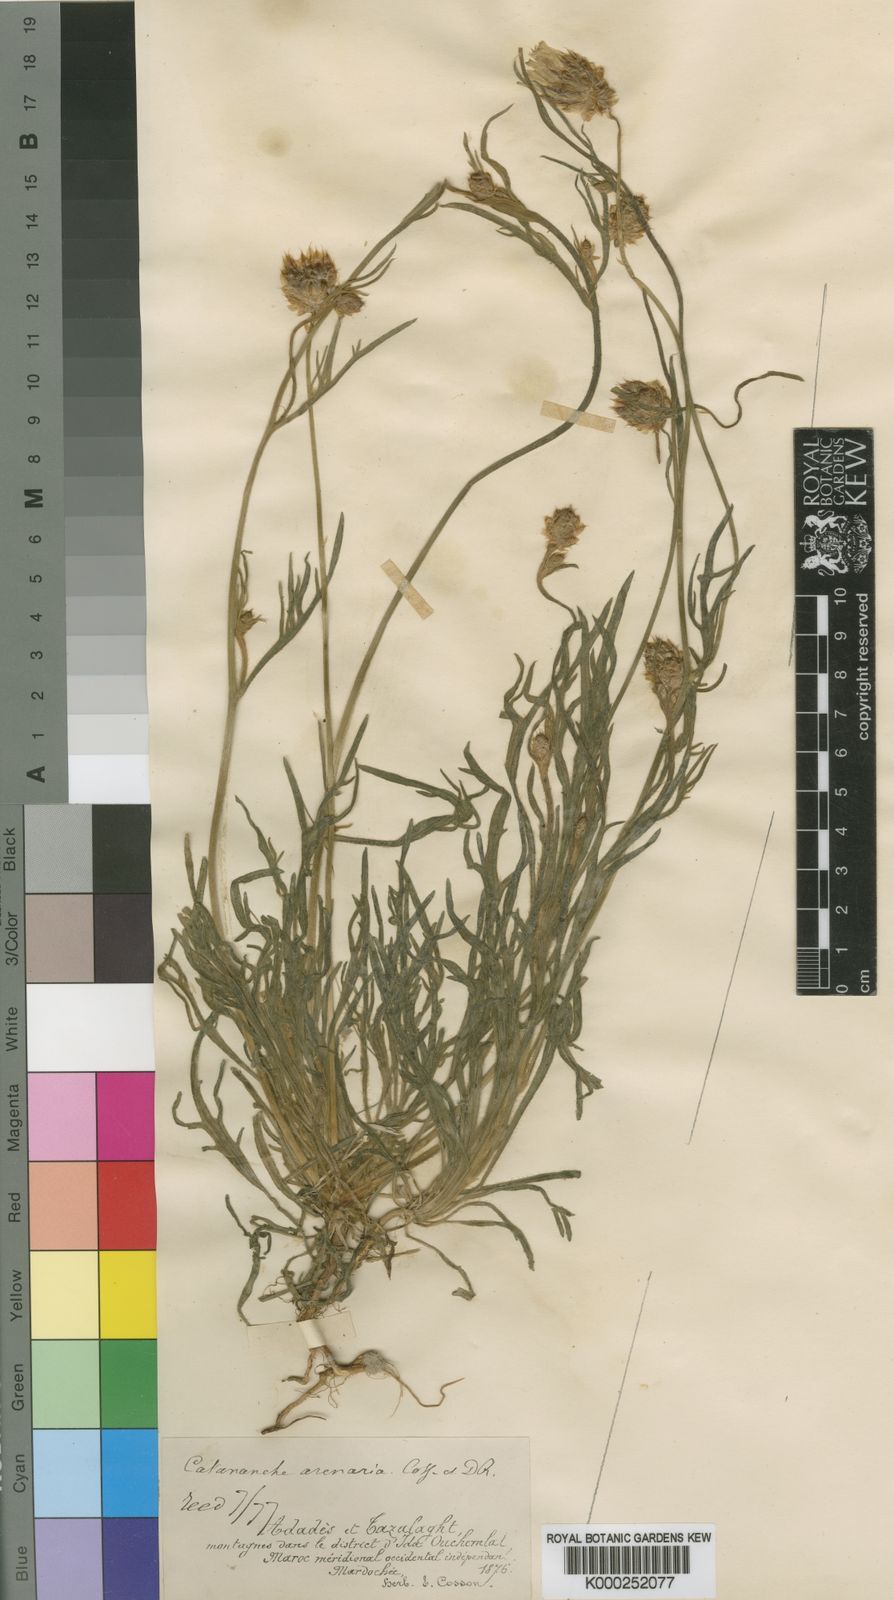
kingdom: Plantae
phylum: Tracheophyta
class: Magnoliopsida
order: Asterales
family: Asteraceae
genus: Catananche
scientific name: Catananche arenaria
